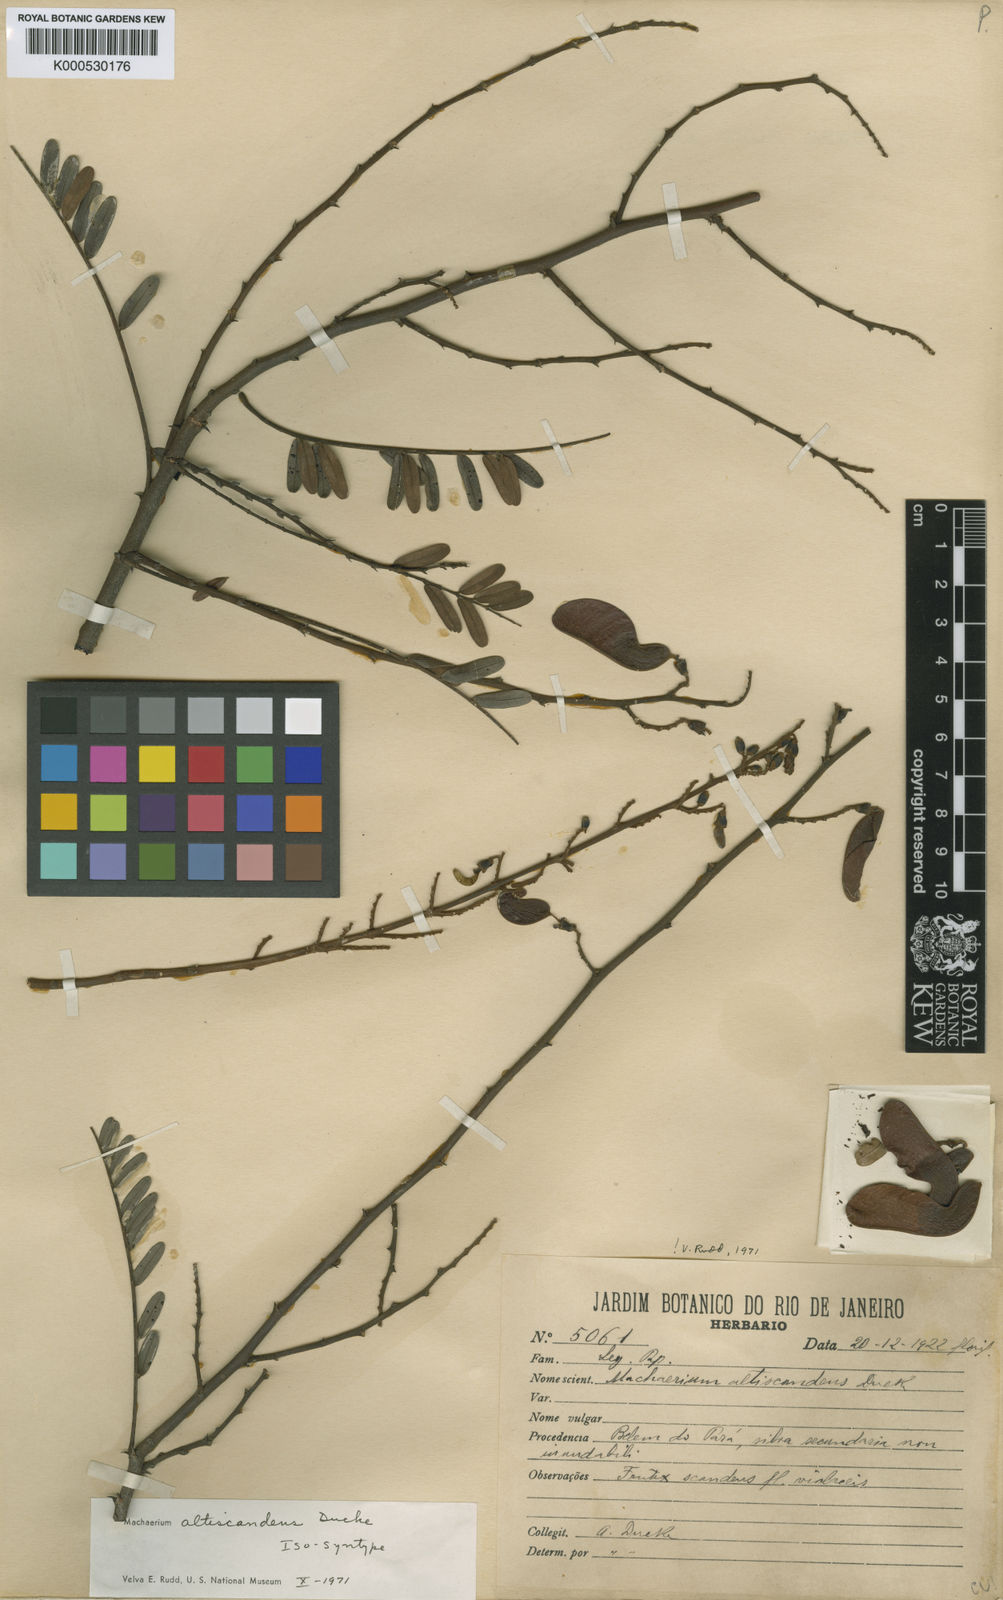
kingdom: Plantae
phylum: Tracheophyta
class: Magnoliopsida
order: Fabales
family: Fabaceae
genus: Machaerium
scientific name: Machaerium isadelphum
